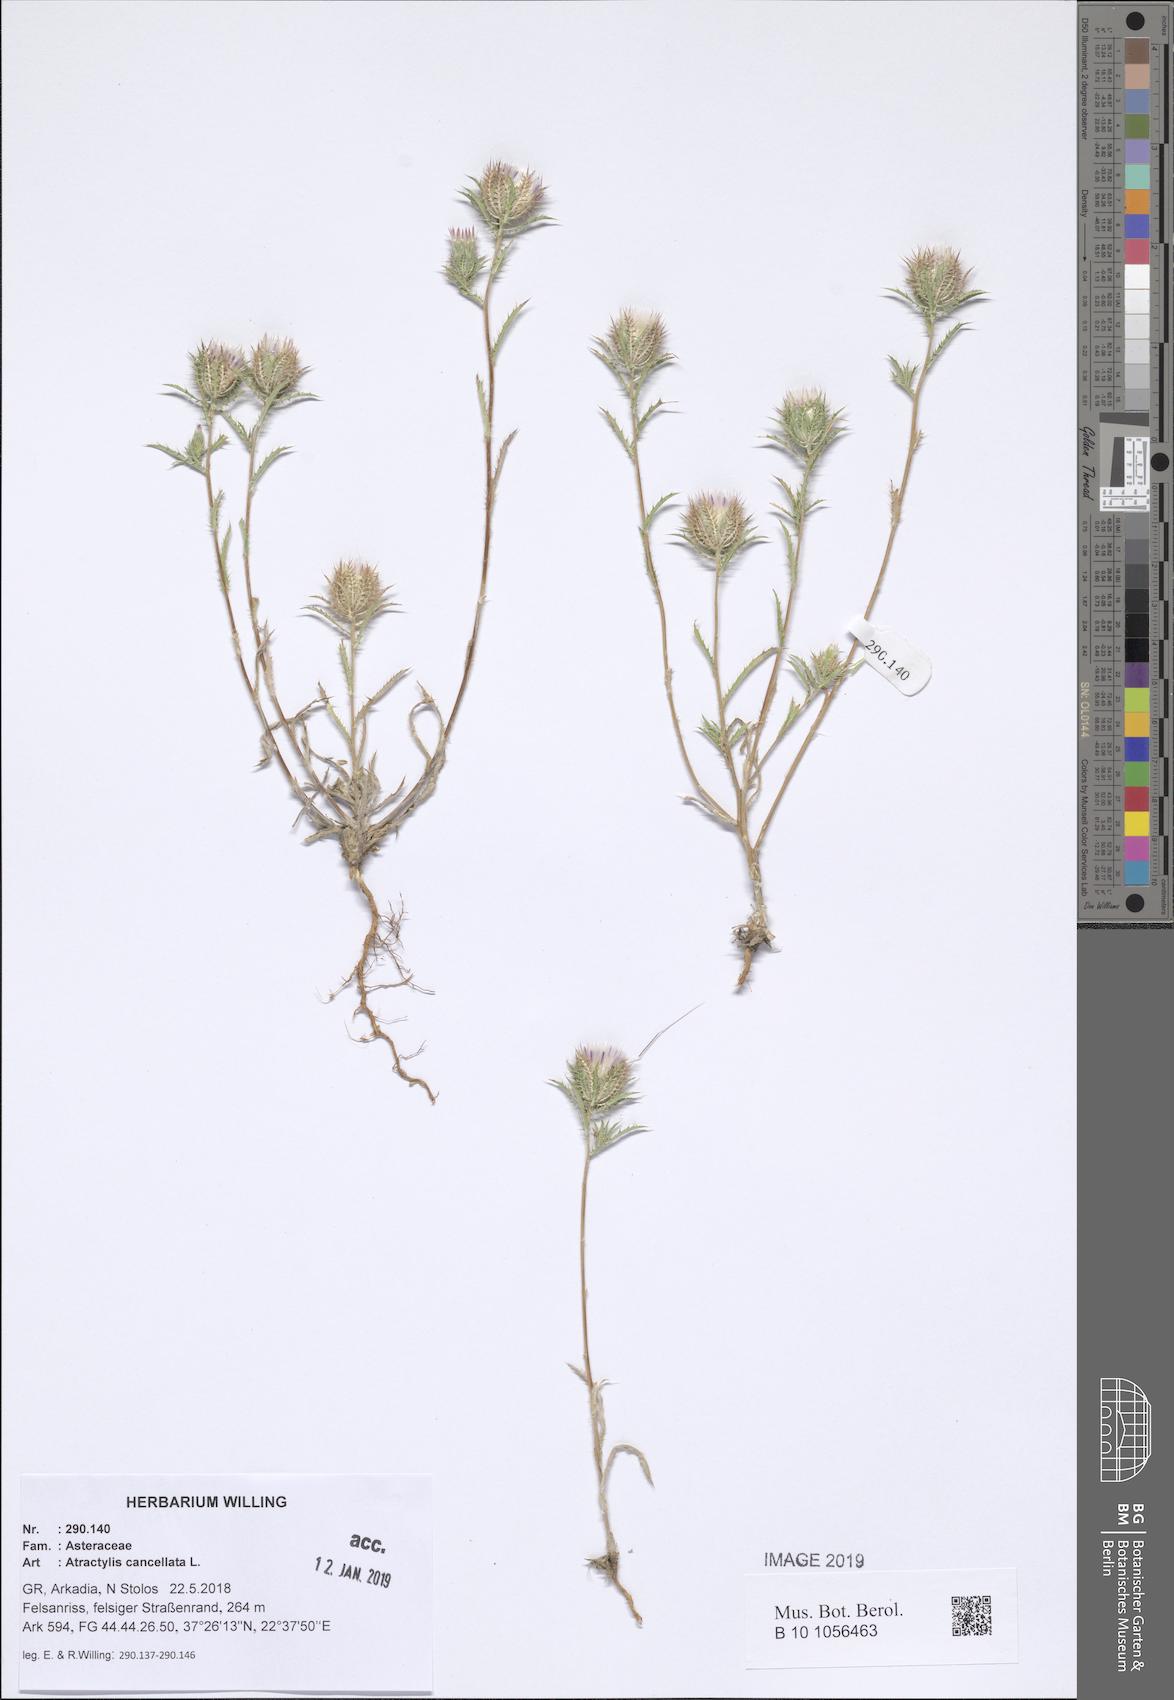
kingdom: Plantae
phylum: Tracheophyta
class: Magnoliopsida
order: Asterales
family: Asteraceae
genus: Atractylis
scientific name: Atractylis cancellata
